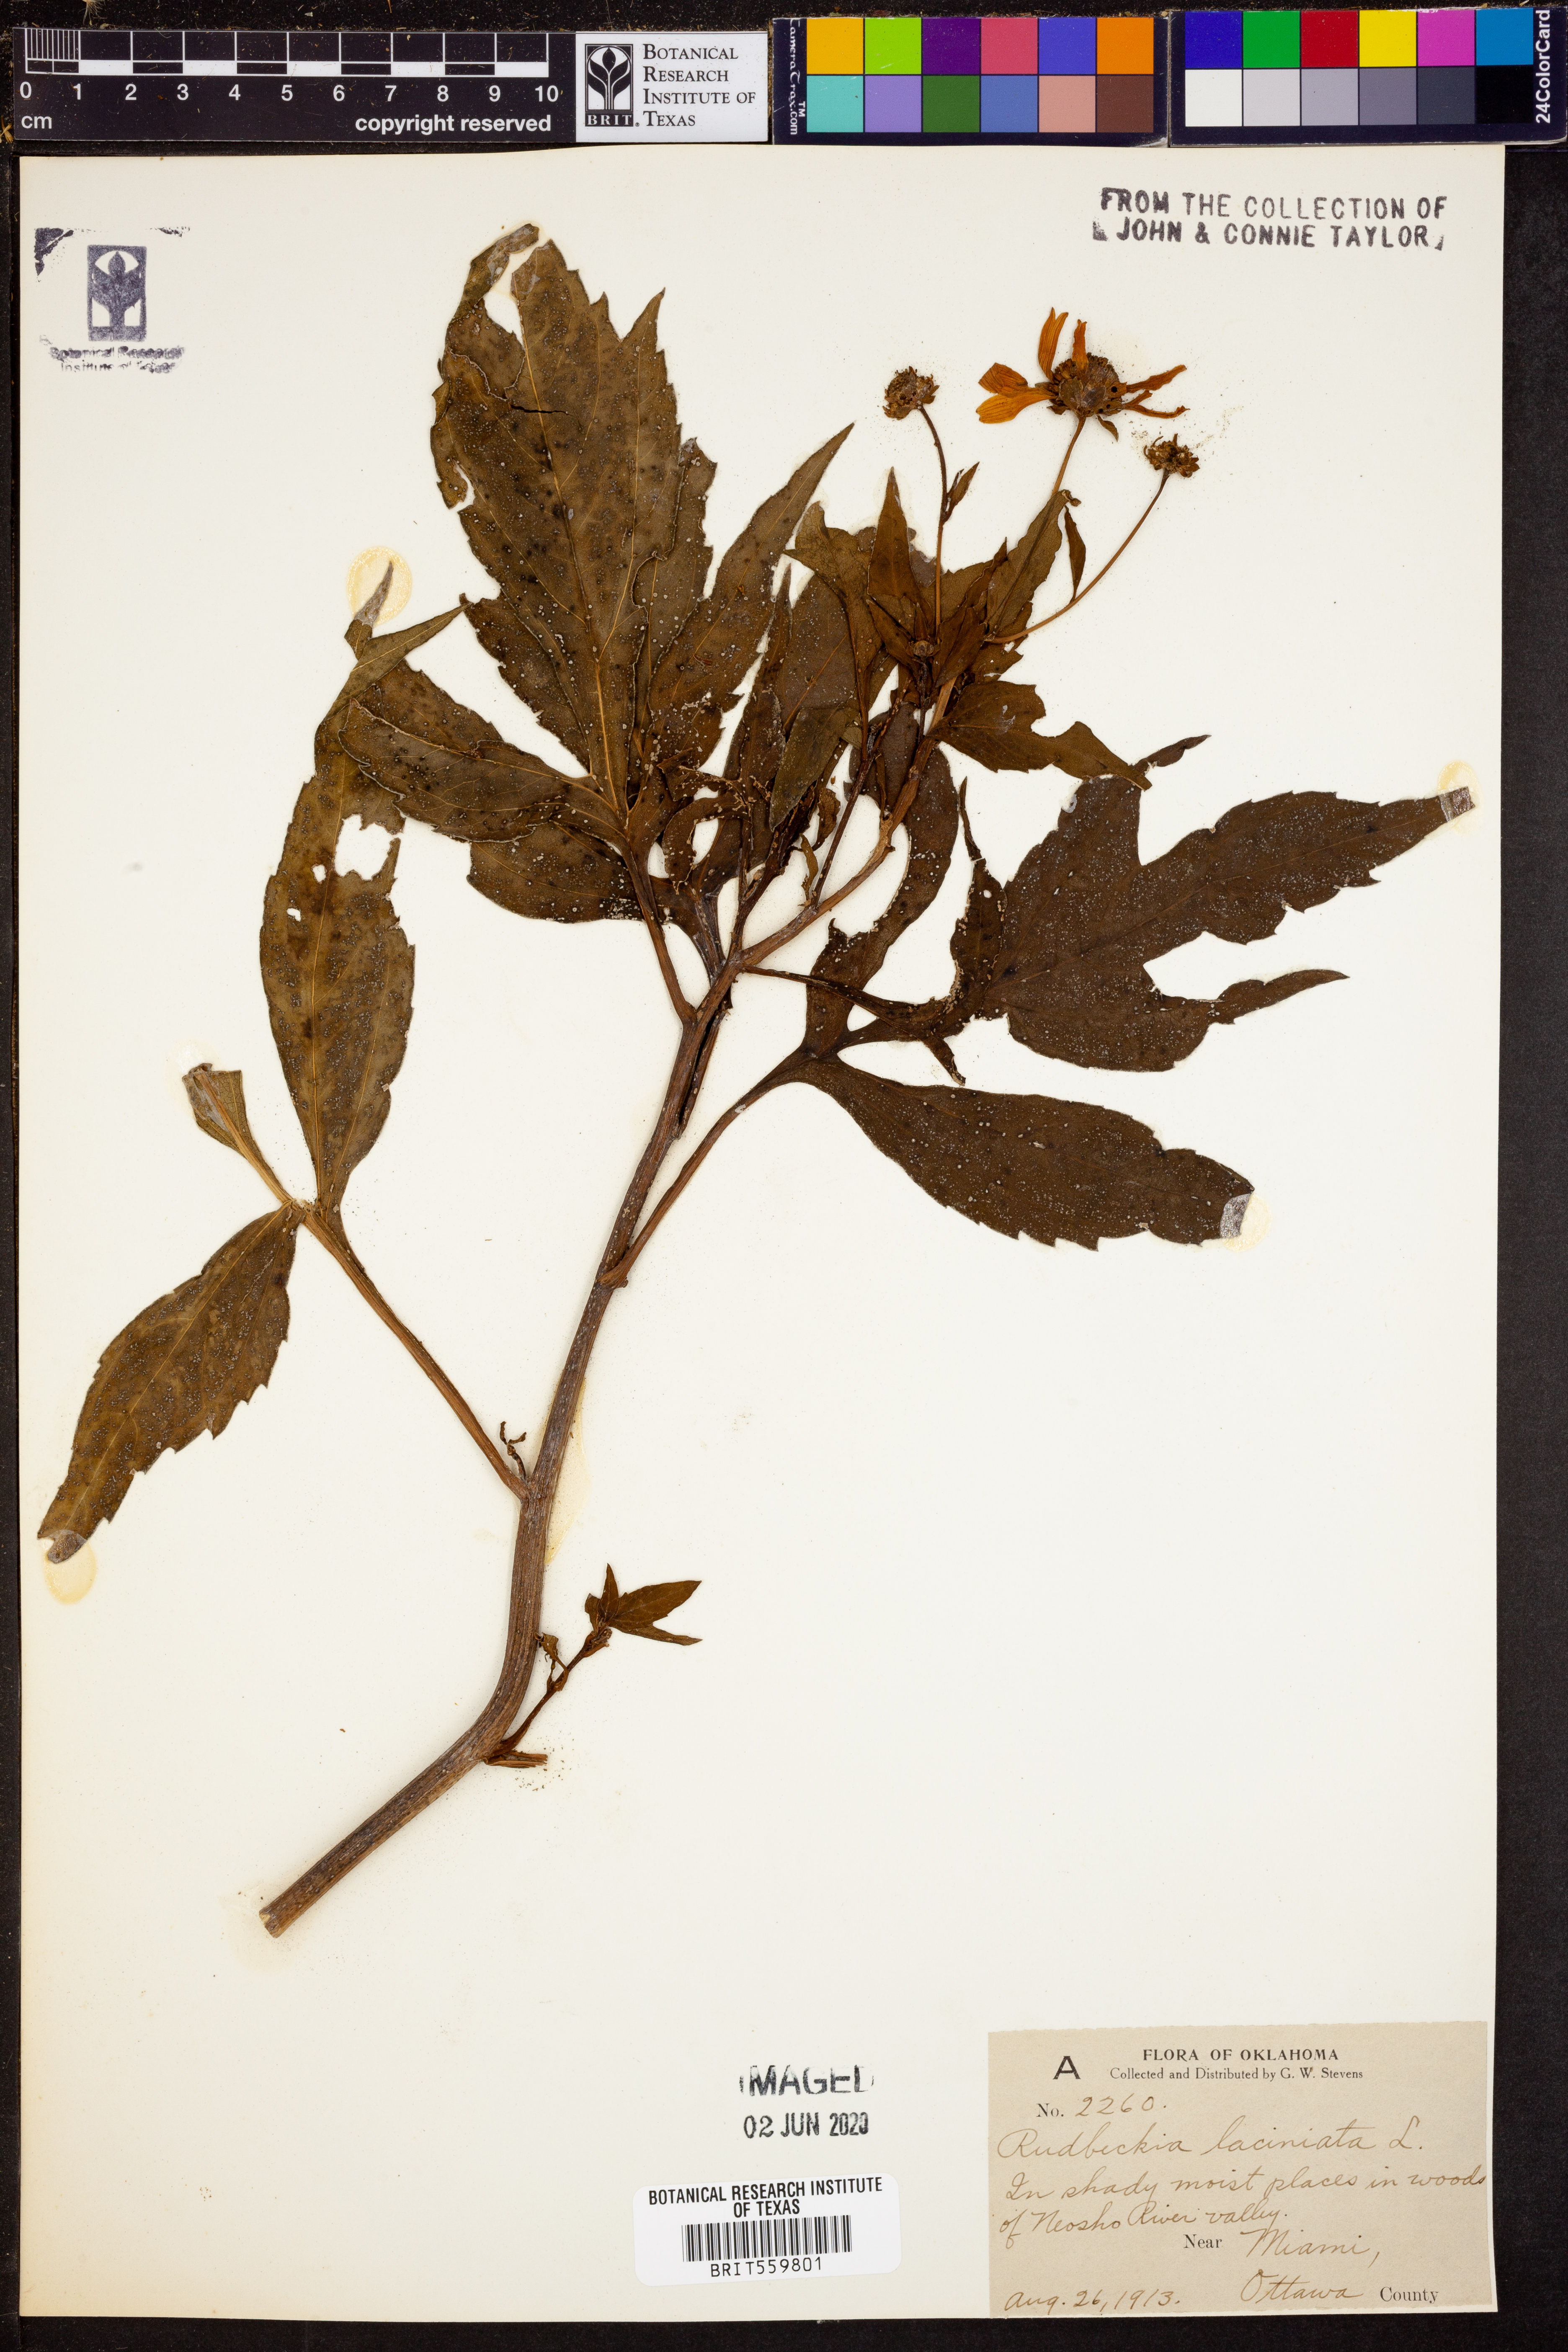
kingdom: Plantae
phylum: Tracheophyta
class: Magnoliopsida
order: Asterales
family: Asteraceae
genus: Rudbeckia
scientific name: Rudbeckia laciniata
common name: Coneflower
